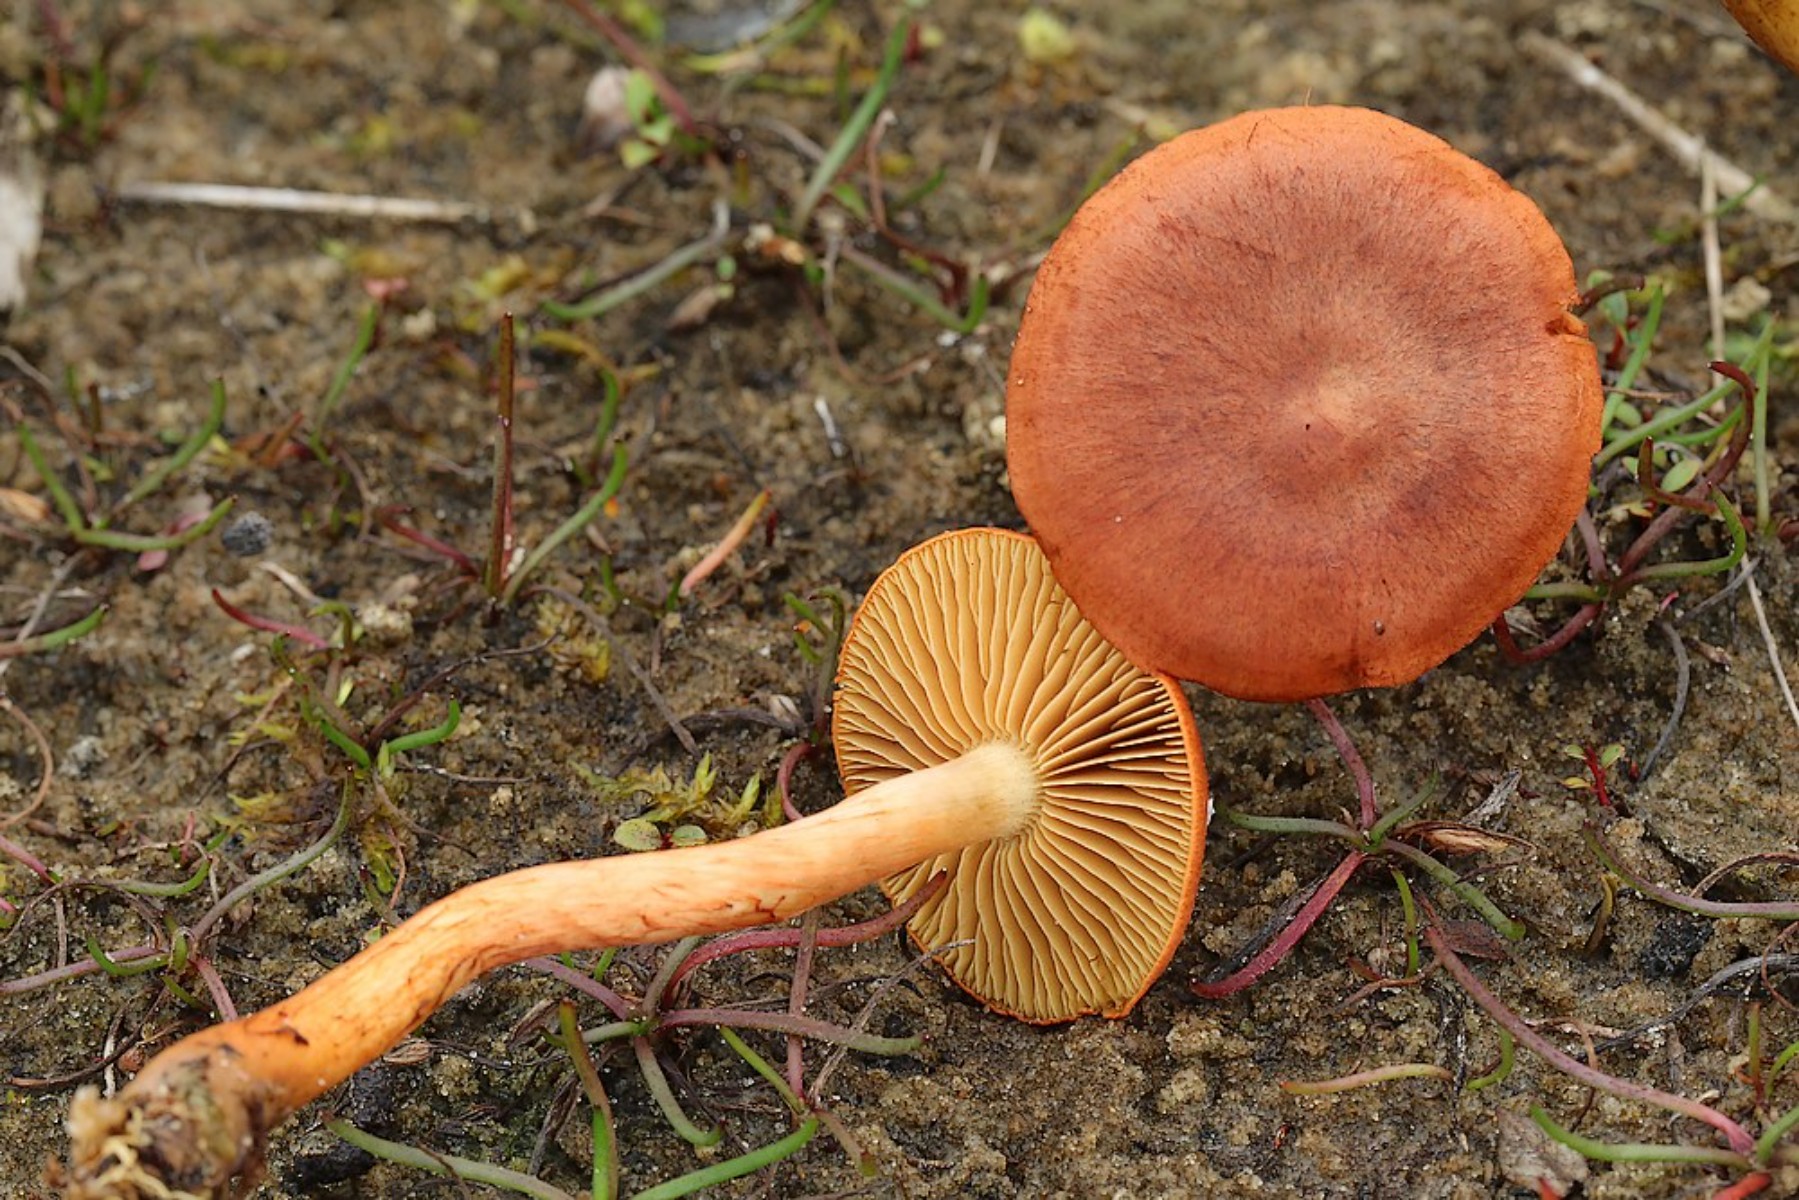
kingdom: Fungi
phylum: Basidiomycota
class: Agaricomycetes
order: Agaricales
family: Cortinariaceae
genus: Cortinarius
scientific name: Cortinarius uliginosus
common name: mose-slørhat
